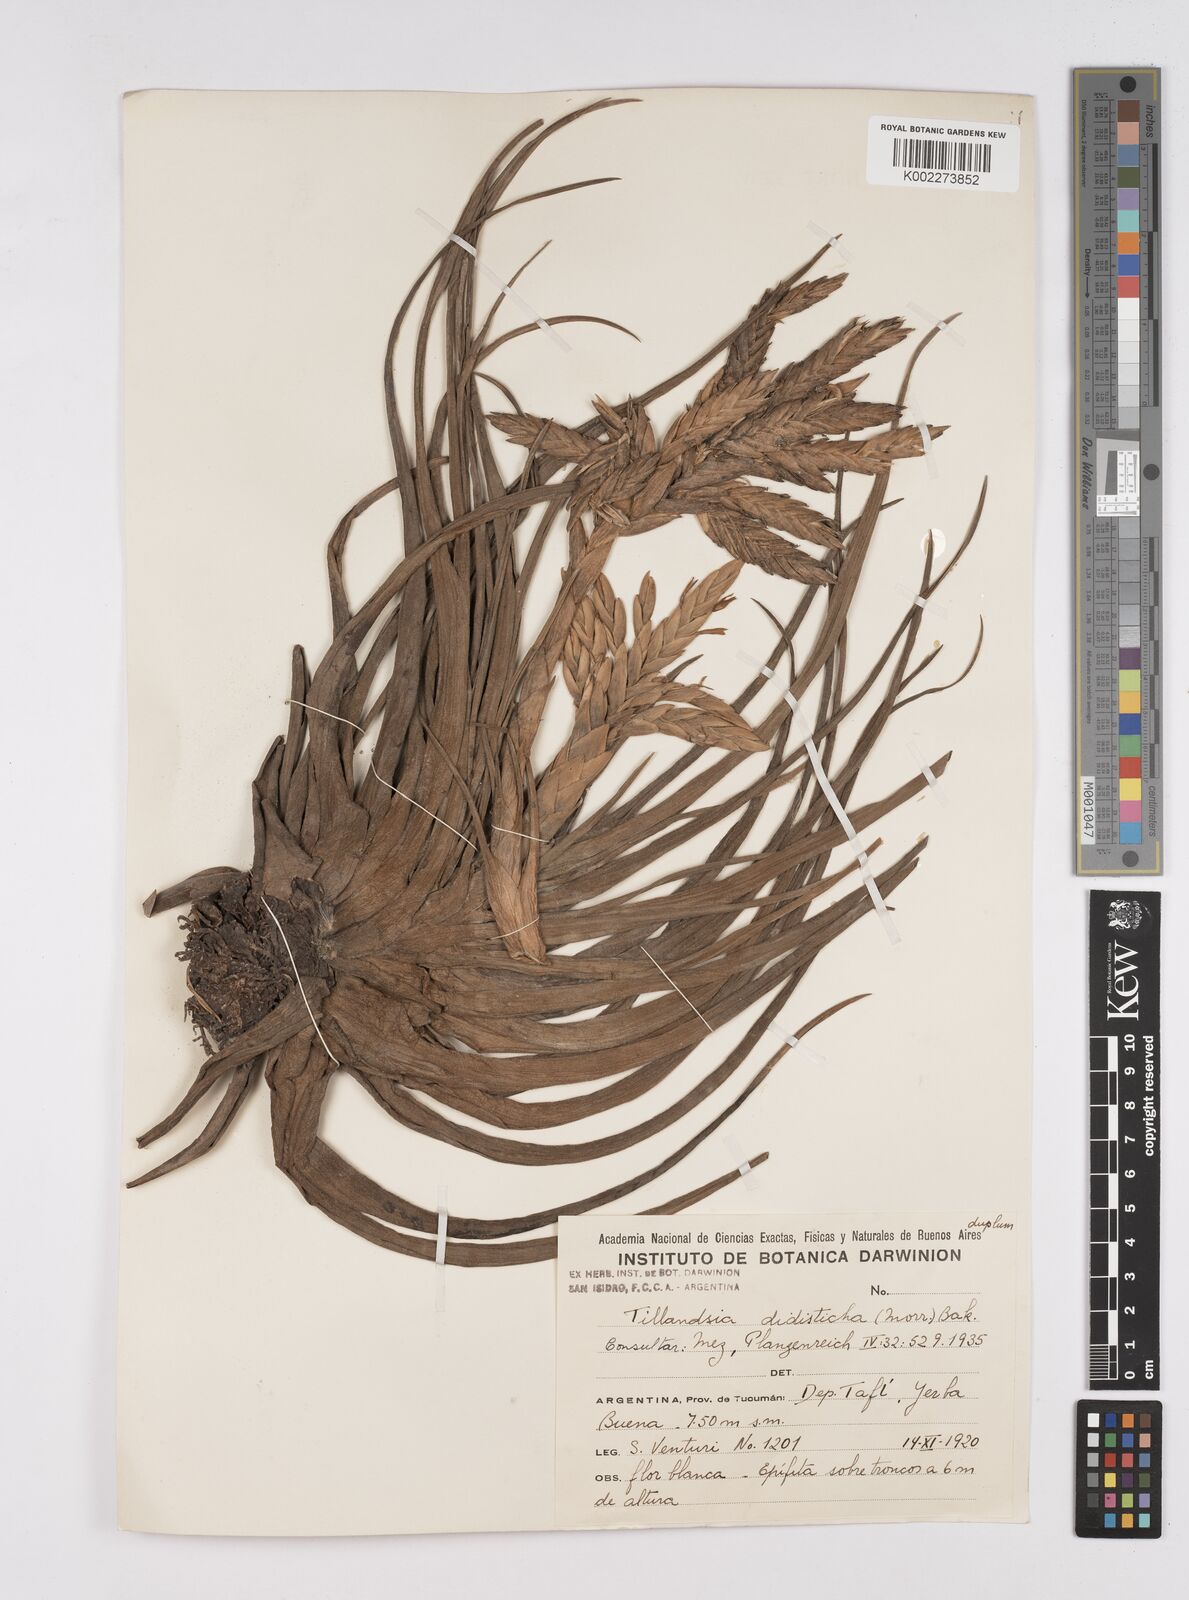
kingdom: Plantae
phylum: Tracheophyta
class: Liliopsida
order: Poales
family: Bromeliaceae
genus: Tillandsia
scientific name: Tillandsia didisticha
